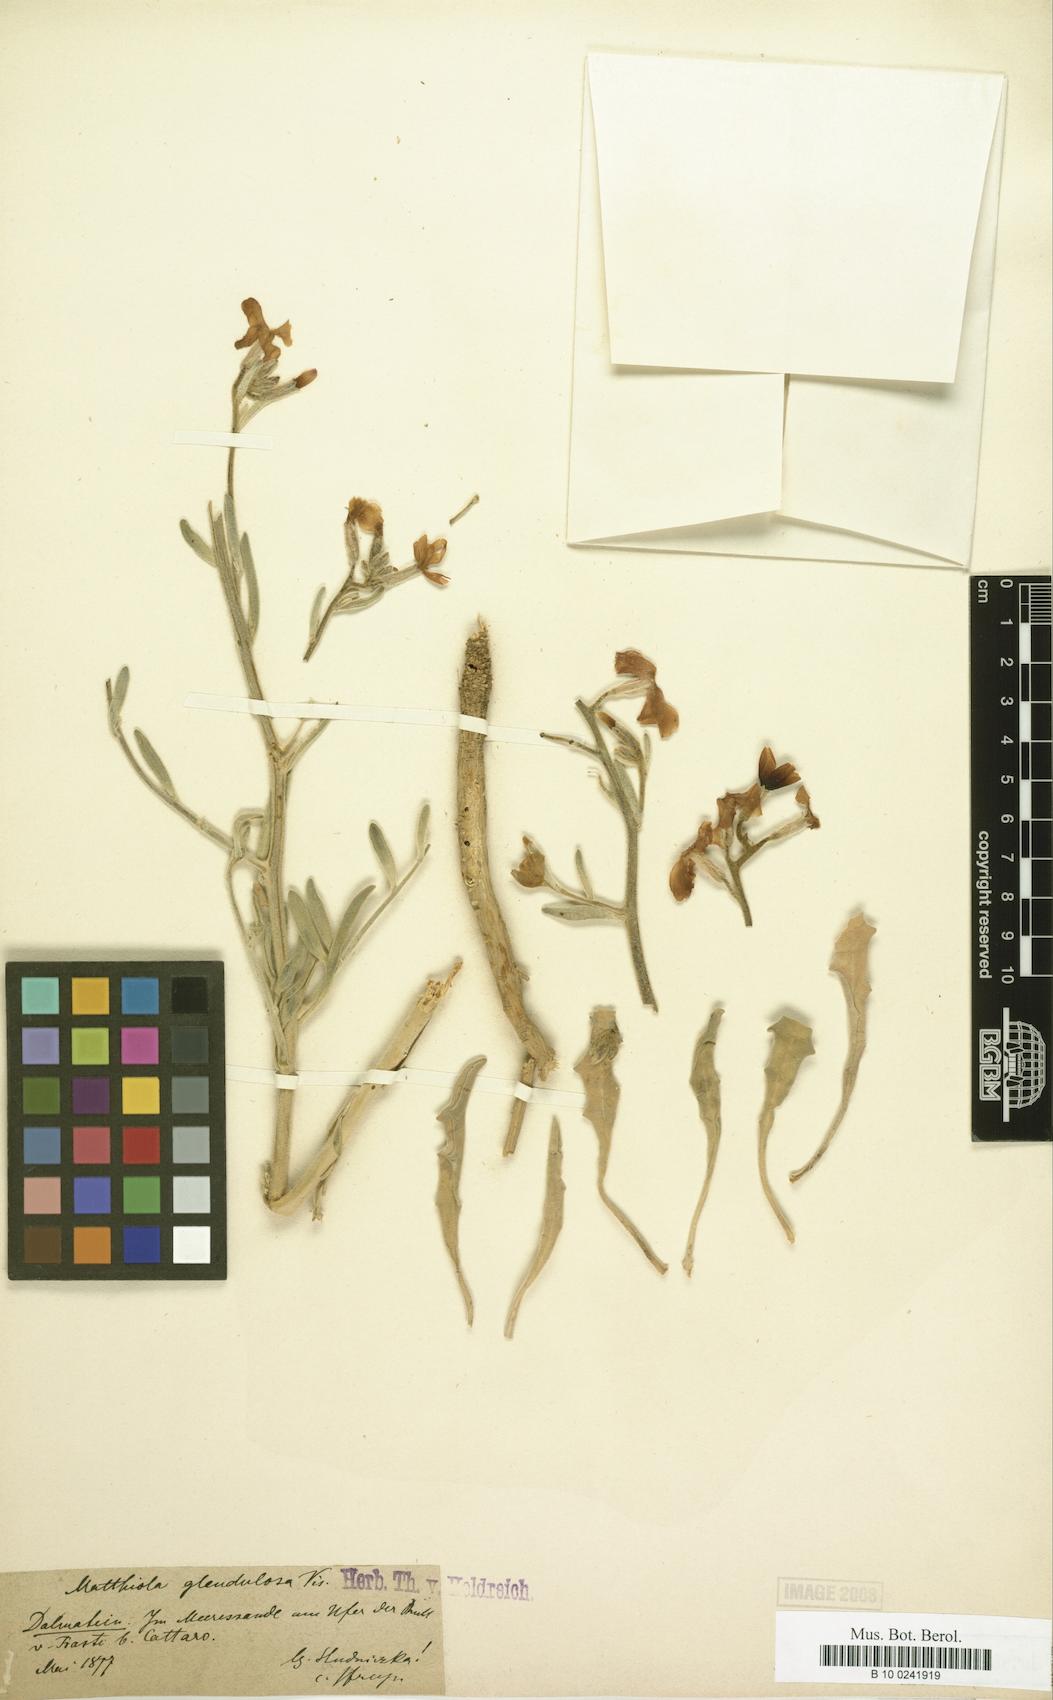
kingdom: Plantae
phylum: Tracheophyta
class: Magnoliopsida
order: Brassicales
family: Brassicaceae
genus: Matthiola
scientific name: Matthiola sinuata
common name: Sea stock
